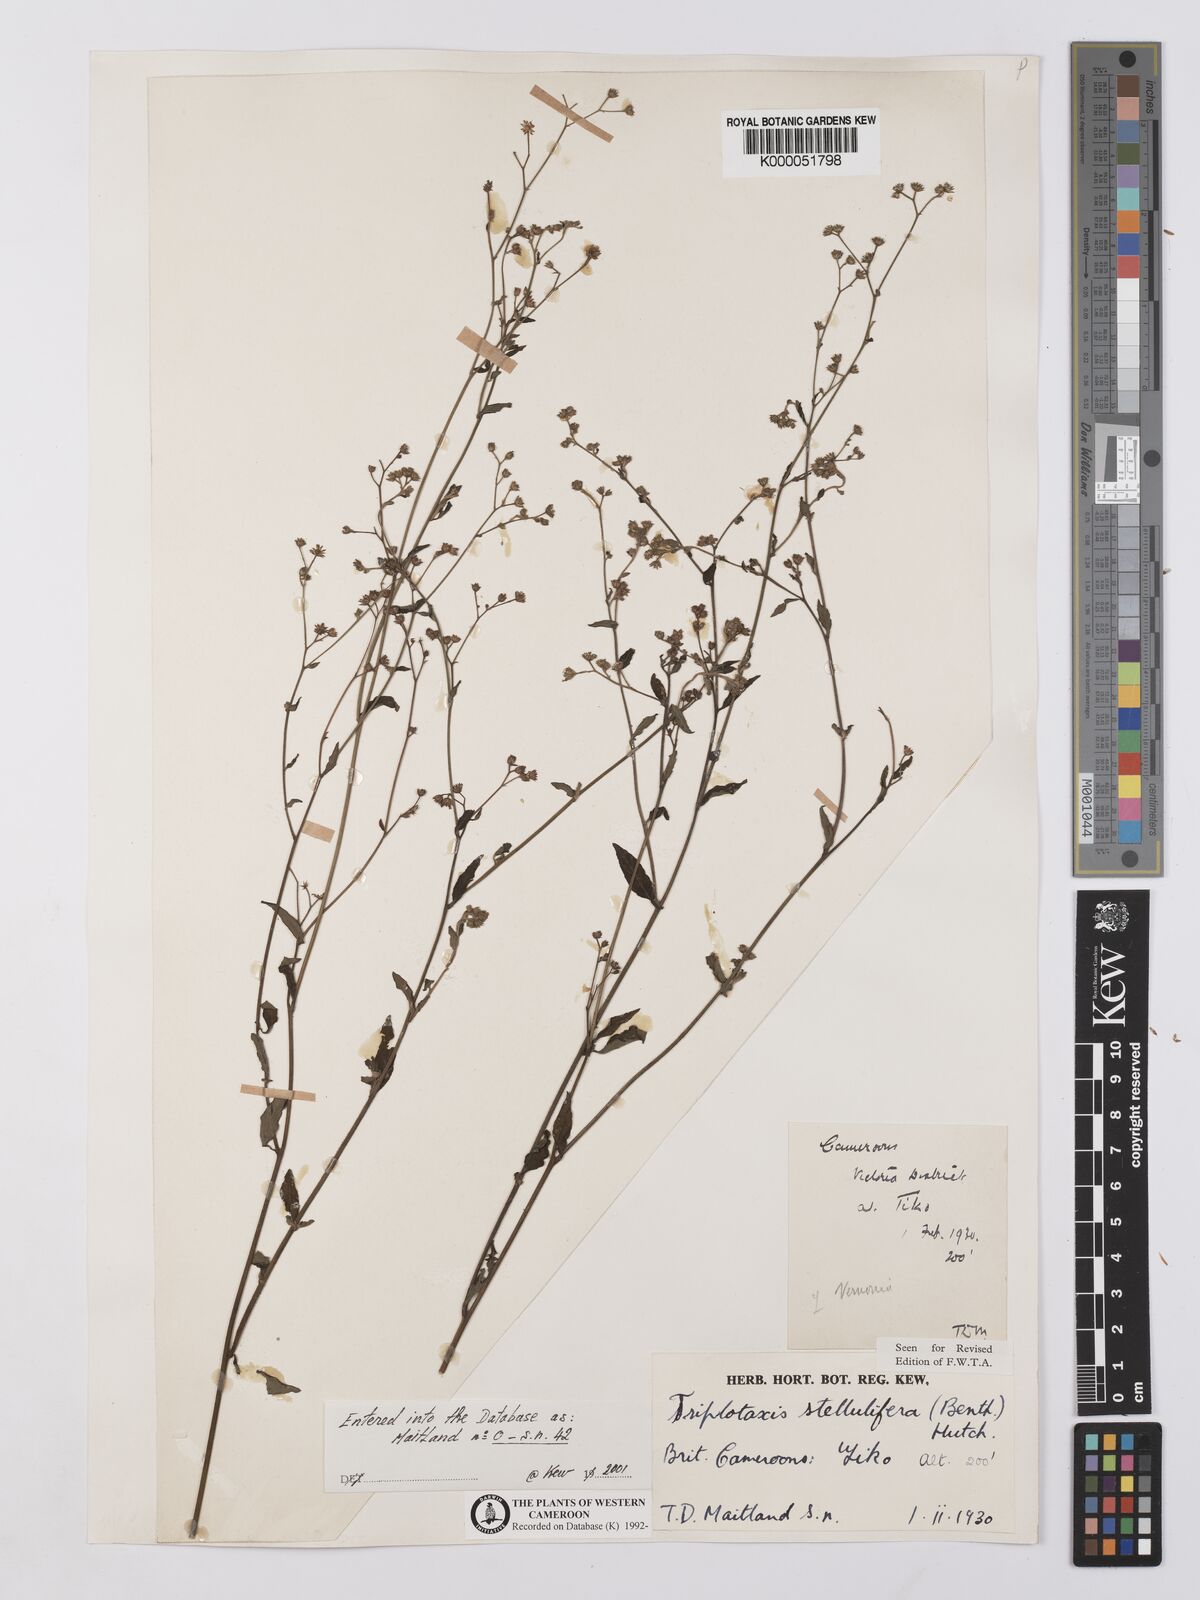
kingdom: Plantae
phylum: Tracheophyta
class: Magnoliopsida
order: Asterales
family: Asteraceae
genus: Cyanthillium
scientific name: Cyanthillium stelluliferum
